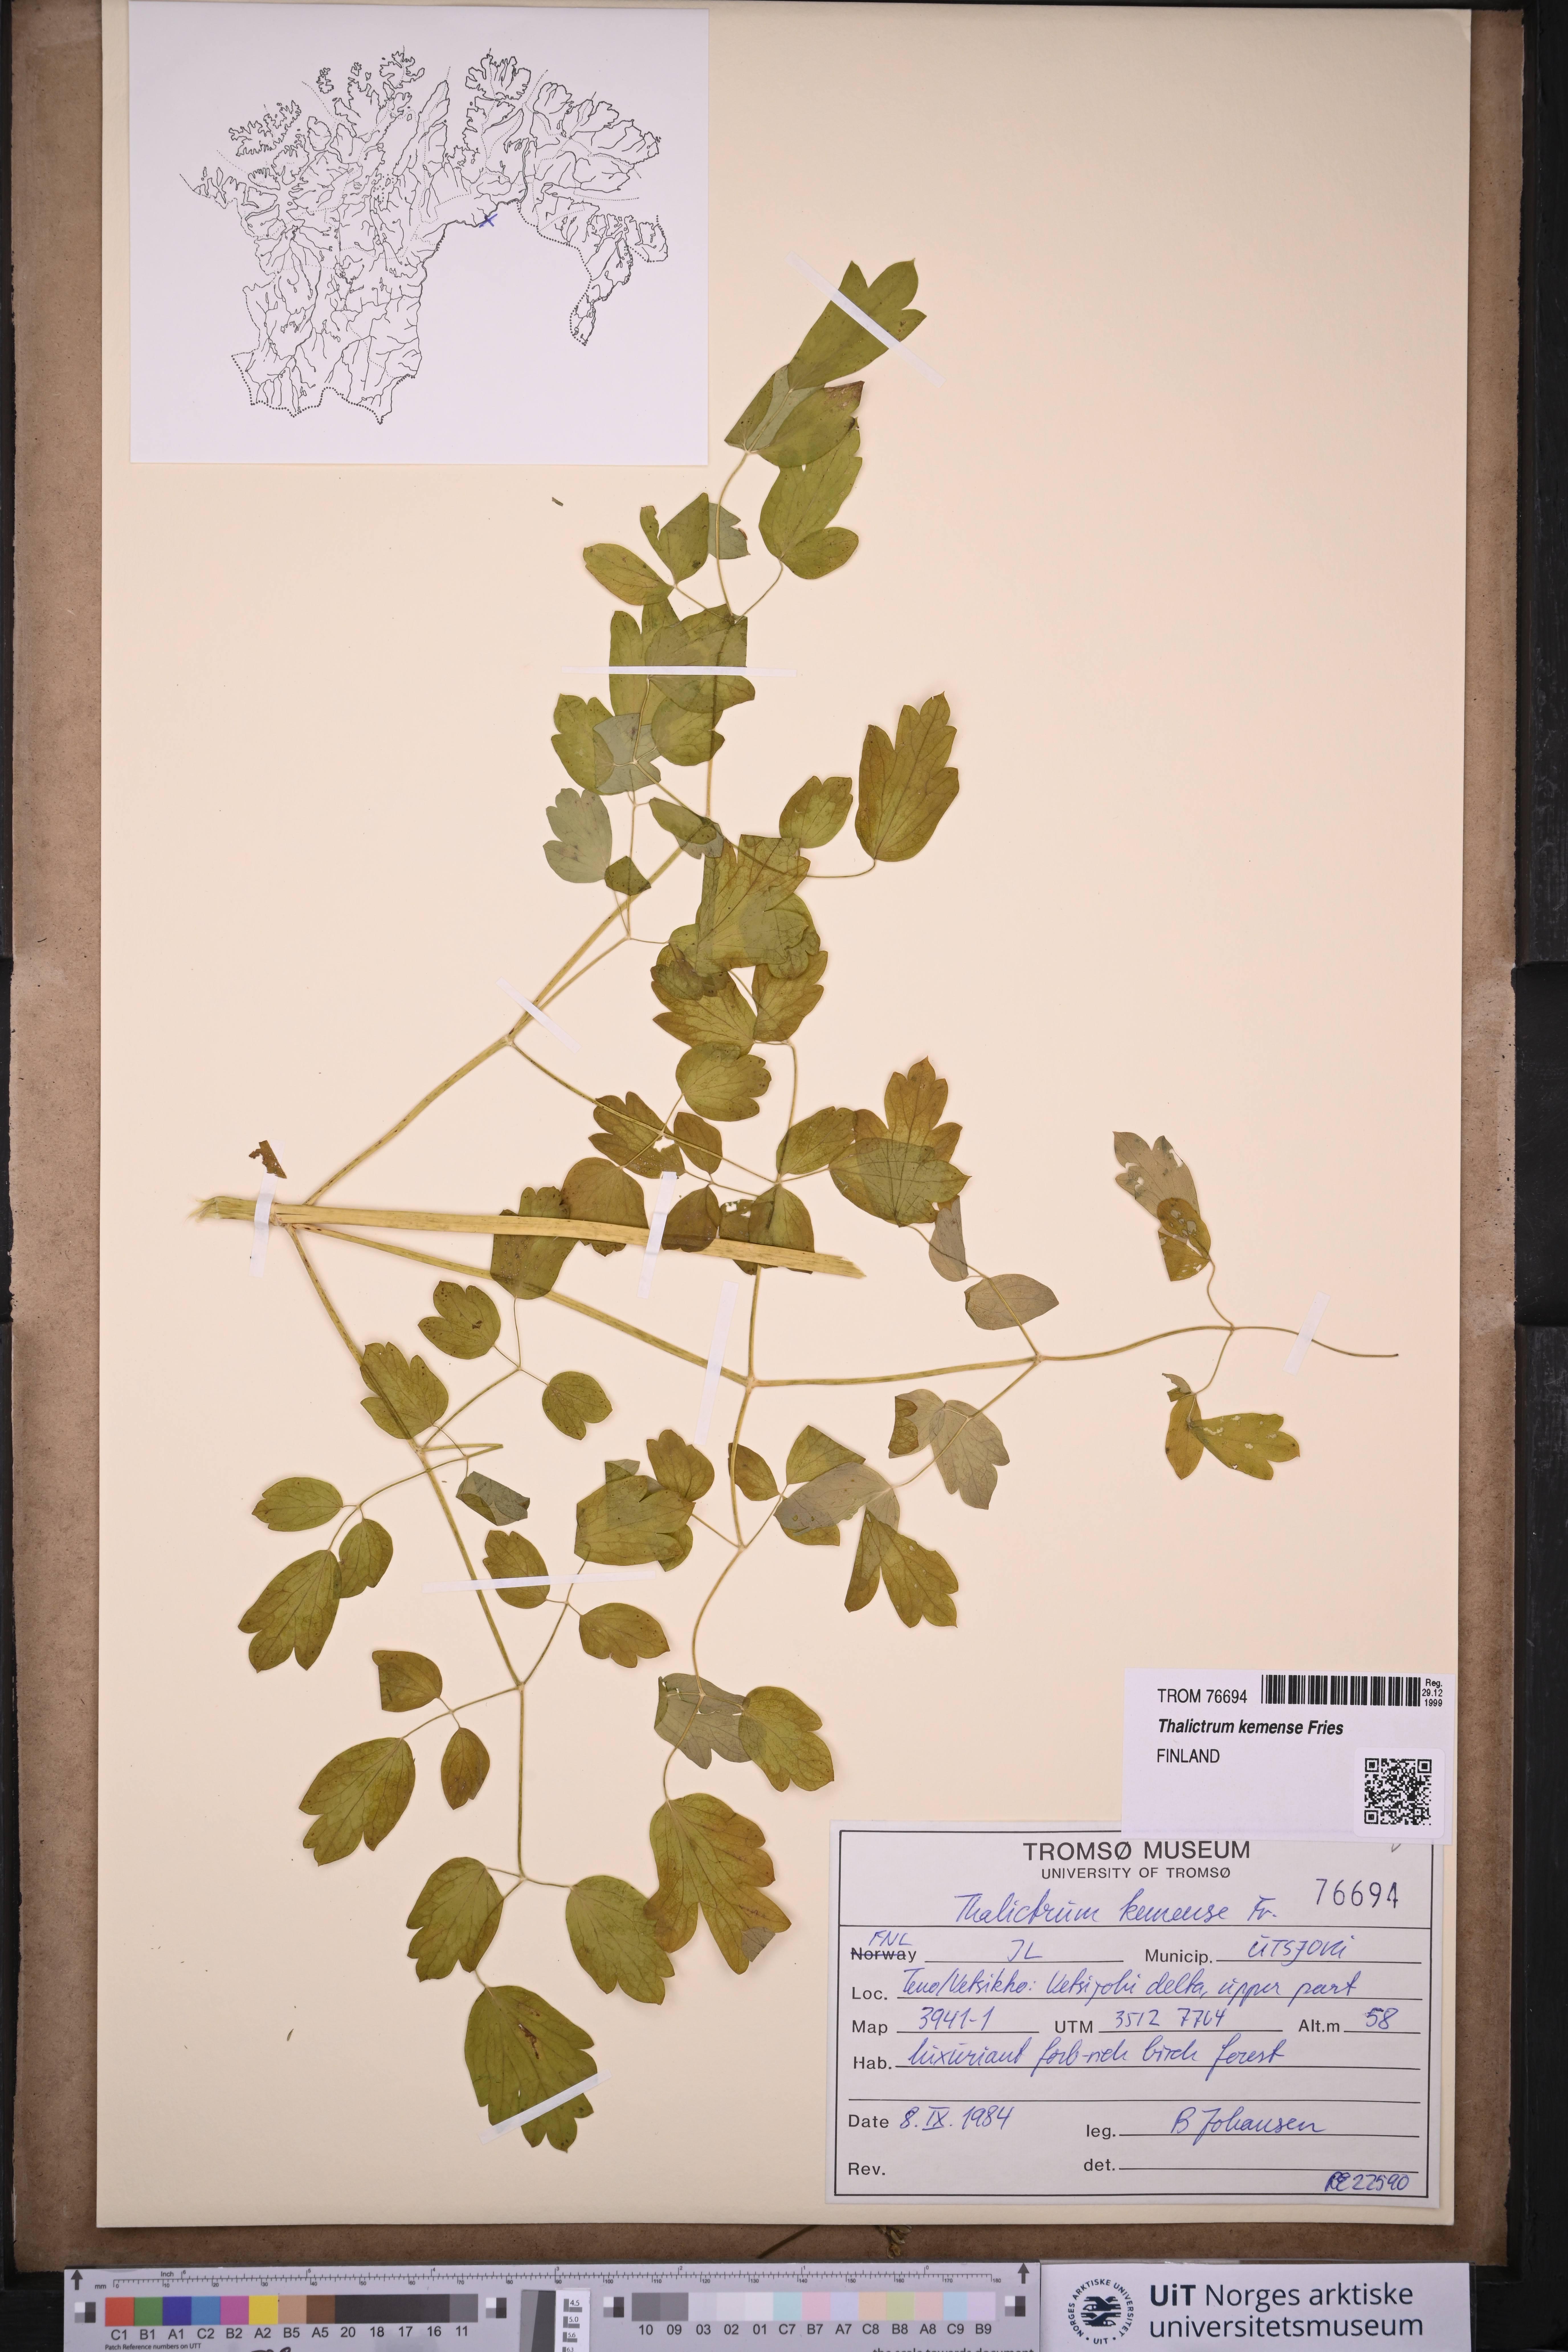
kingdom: Plantae
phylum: Tracheophyta
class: Magnoliopsida
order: Ranunculales
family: Ranunculaceae
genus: Thalictrum
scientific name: Thalictrum minus
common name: Lesser meadow-rue
